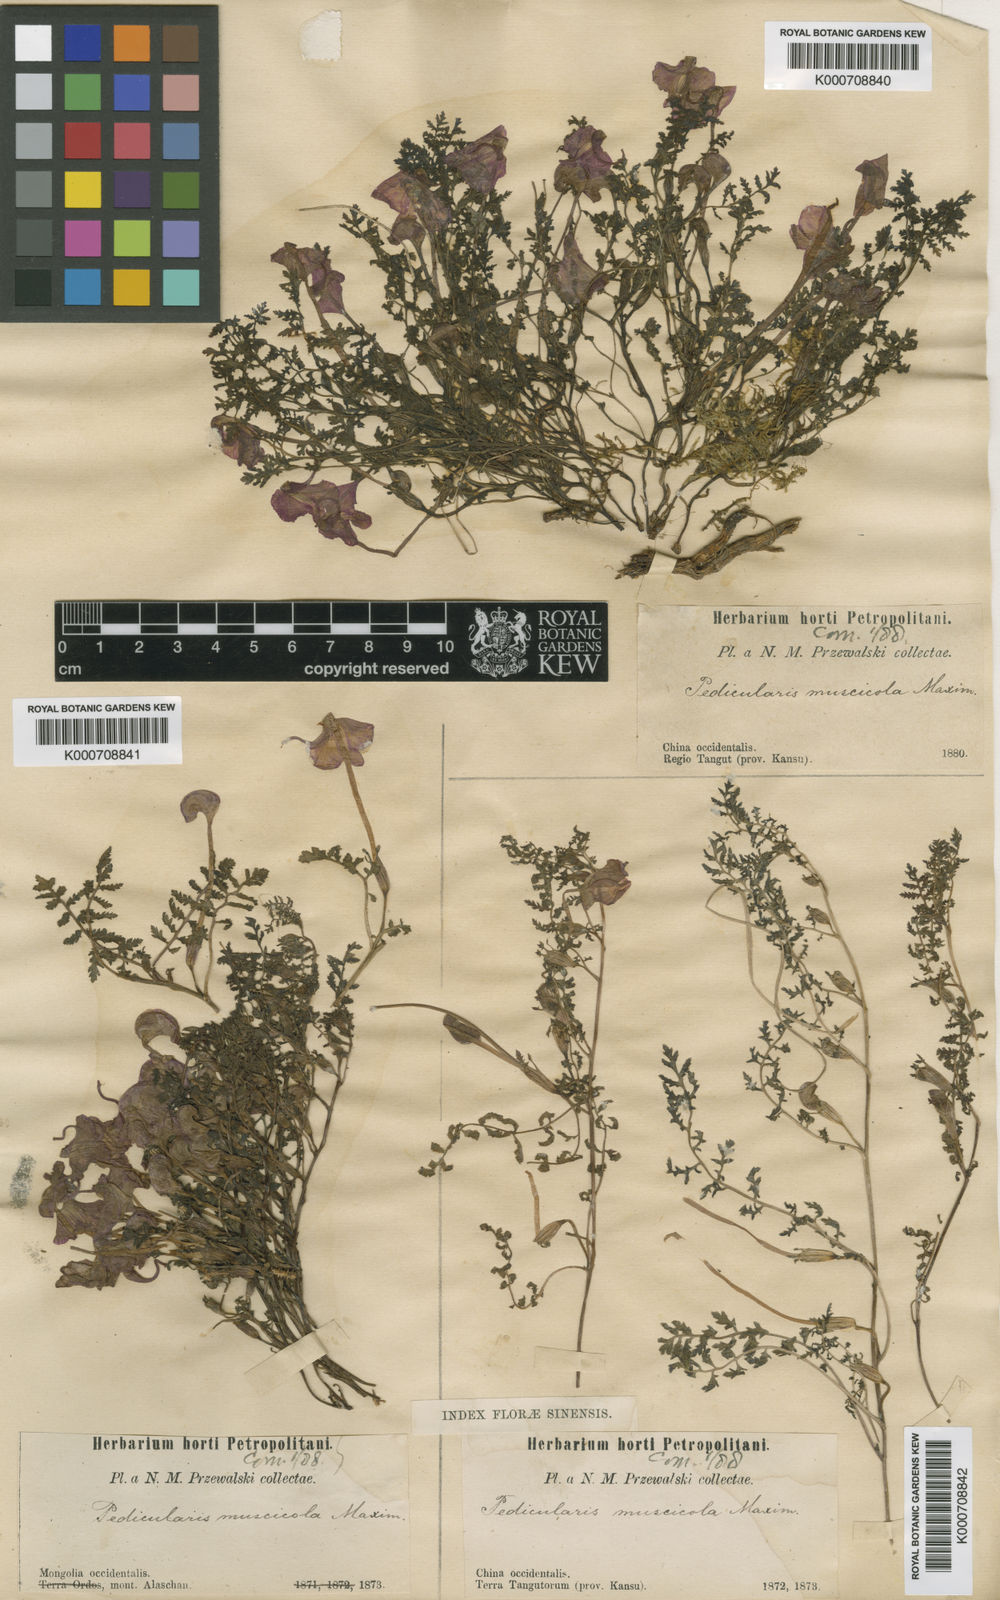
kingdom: Plantae
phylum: Tracheophyta
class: Magnoliopsida
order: Lamiales
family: Orobanchaceae
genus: Pedicularis
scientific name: Pedicularis muscicola
